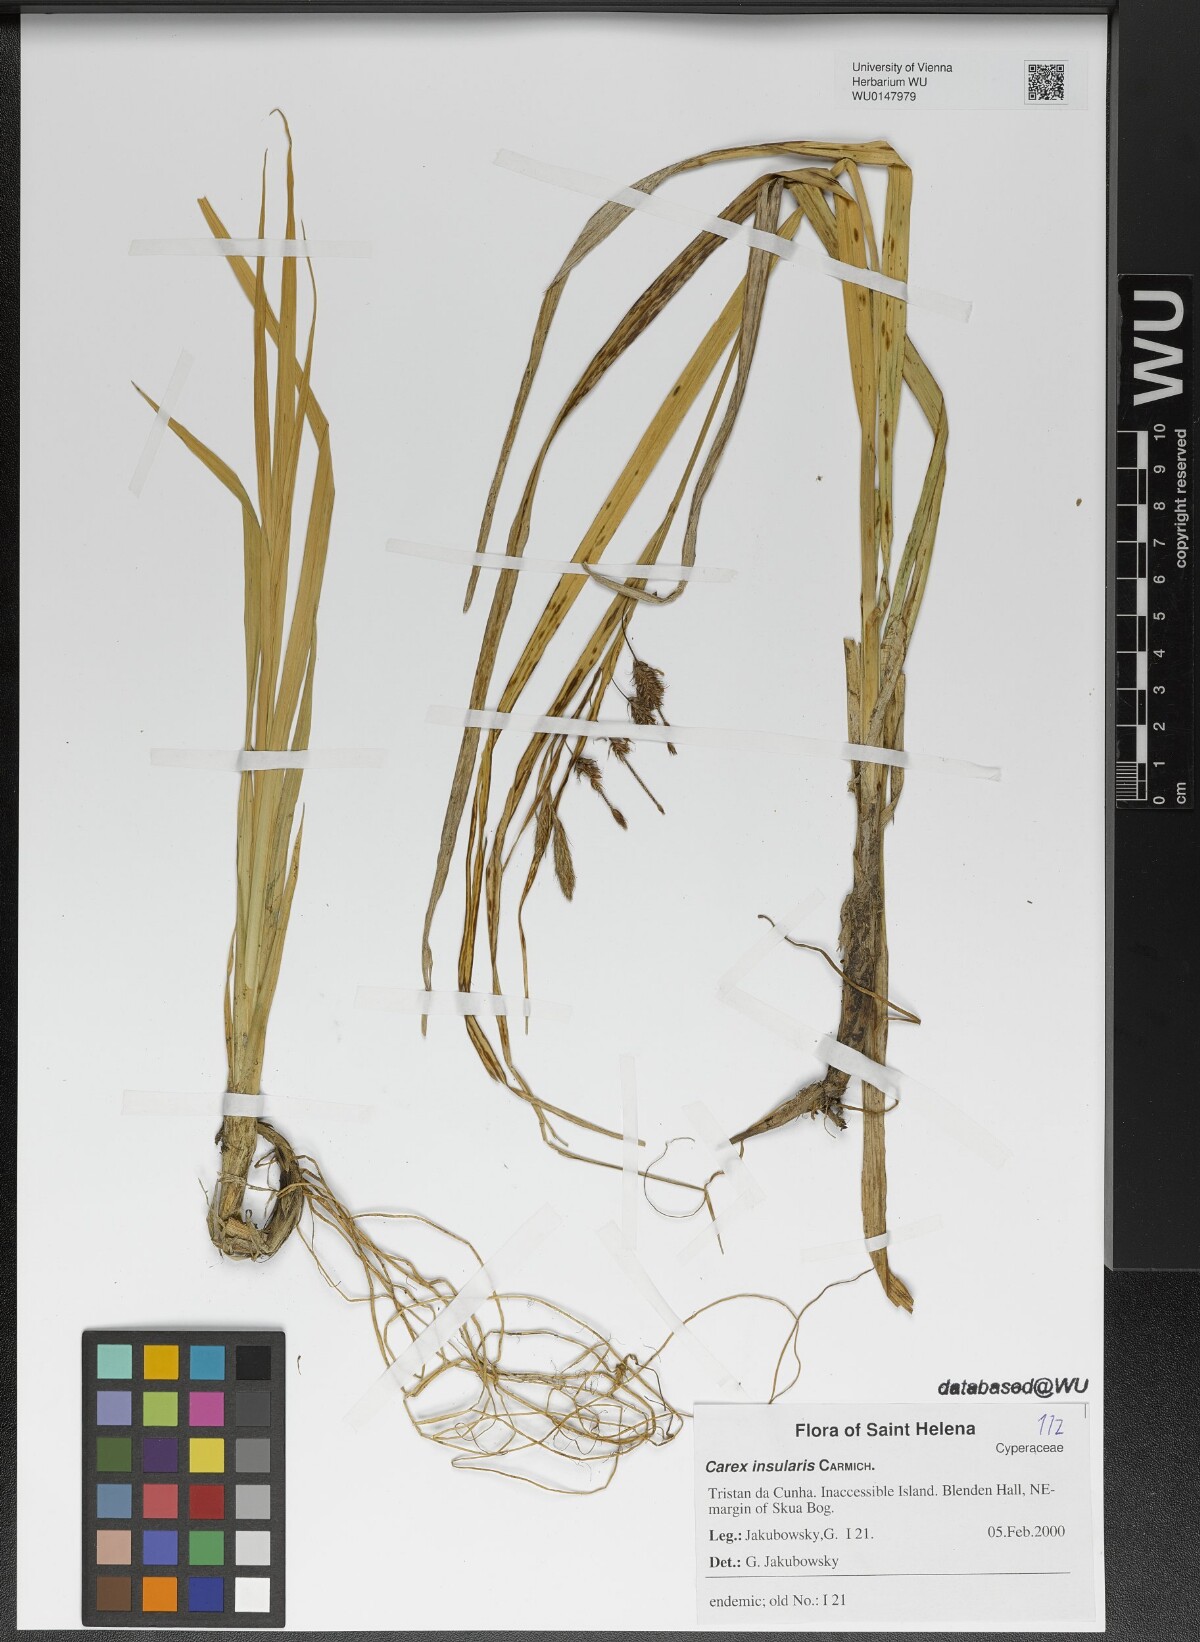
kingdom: Plantae
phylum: Tracheophyta
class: Liliopsida
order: Poales
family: Cyperaceae
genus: Carex
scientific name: Carex insularis
